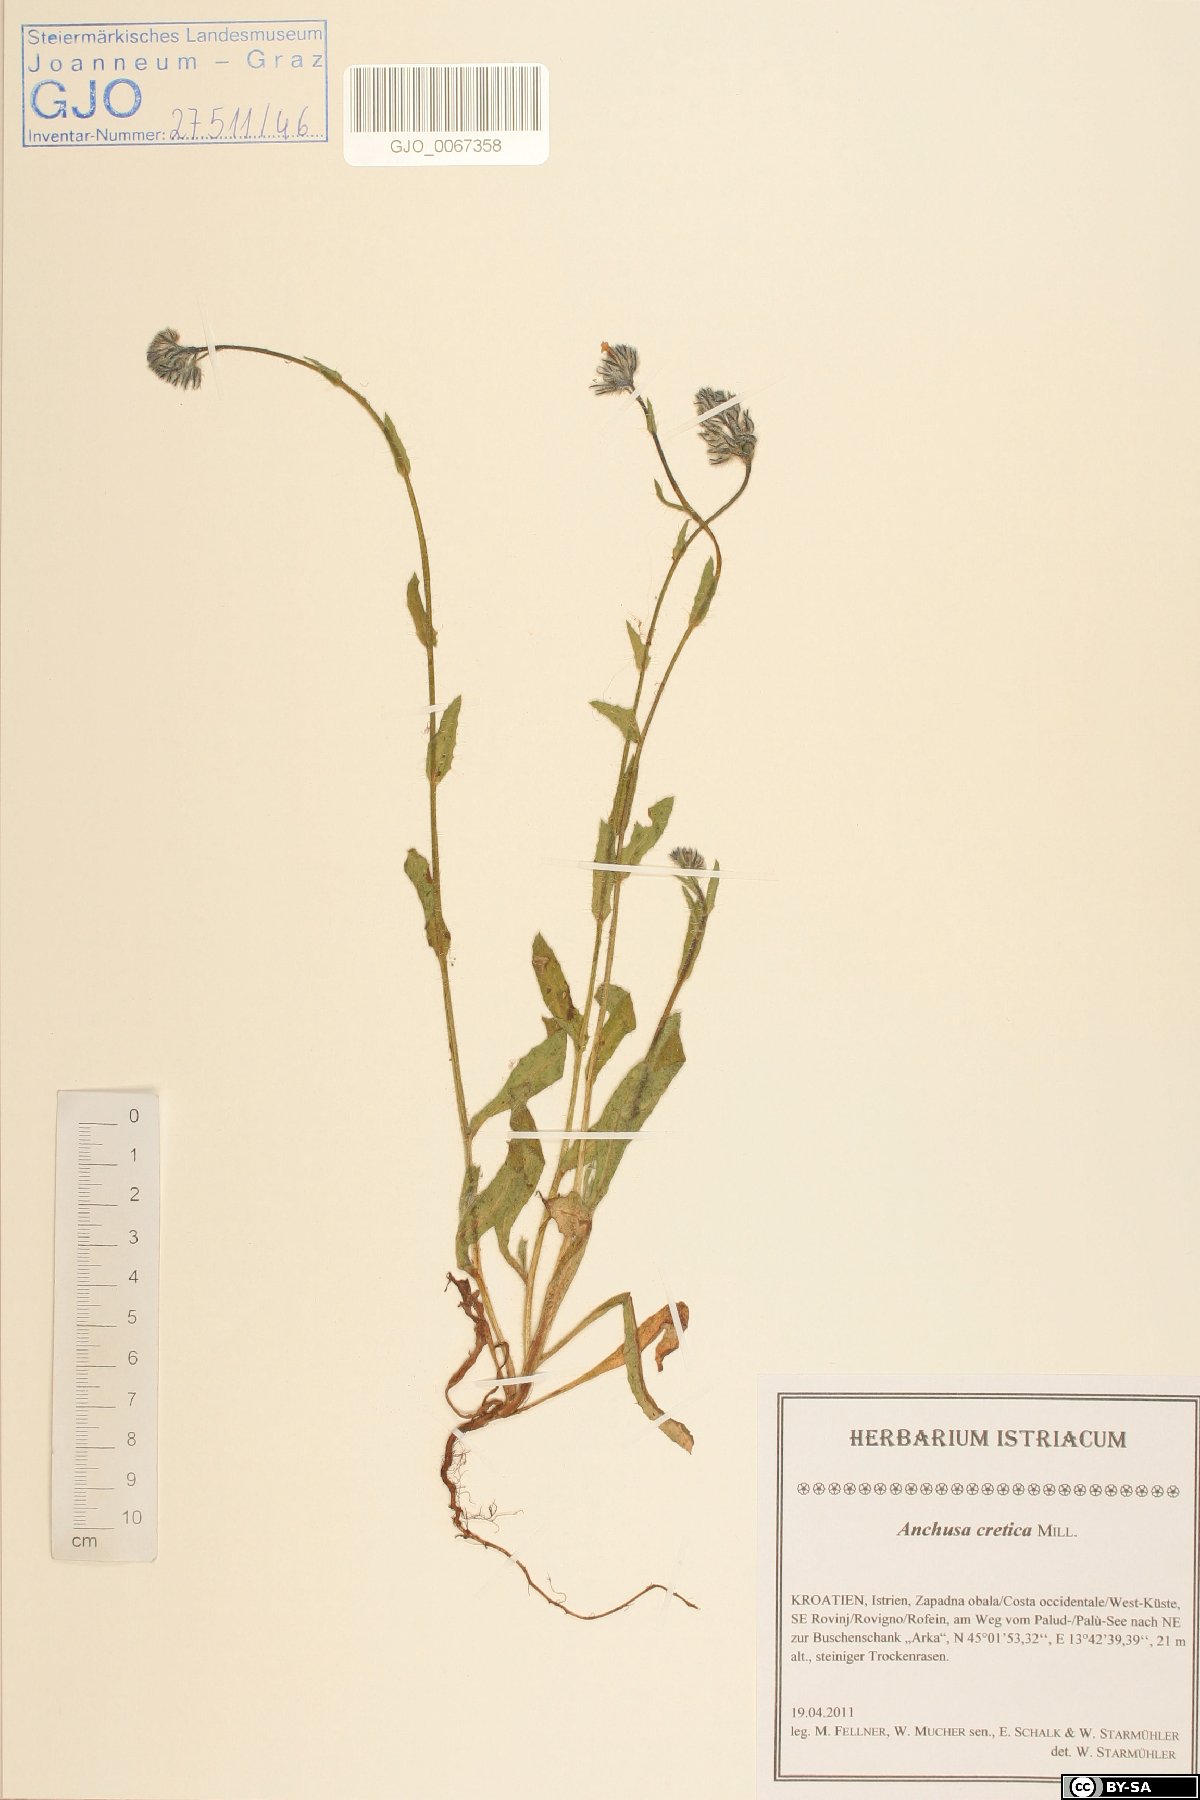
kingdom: Plantae
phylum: Tracheophyta
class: Magnoliopsida
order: Boraginales
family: Boraginaceae
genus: Anchusella
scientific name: Anchusella cretica
